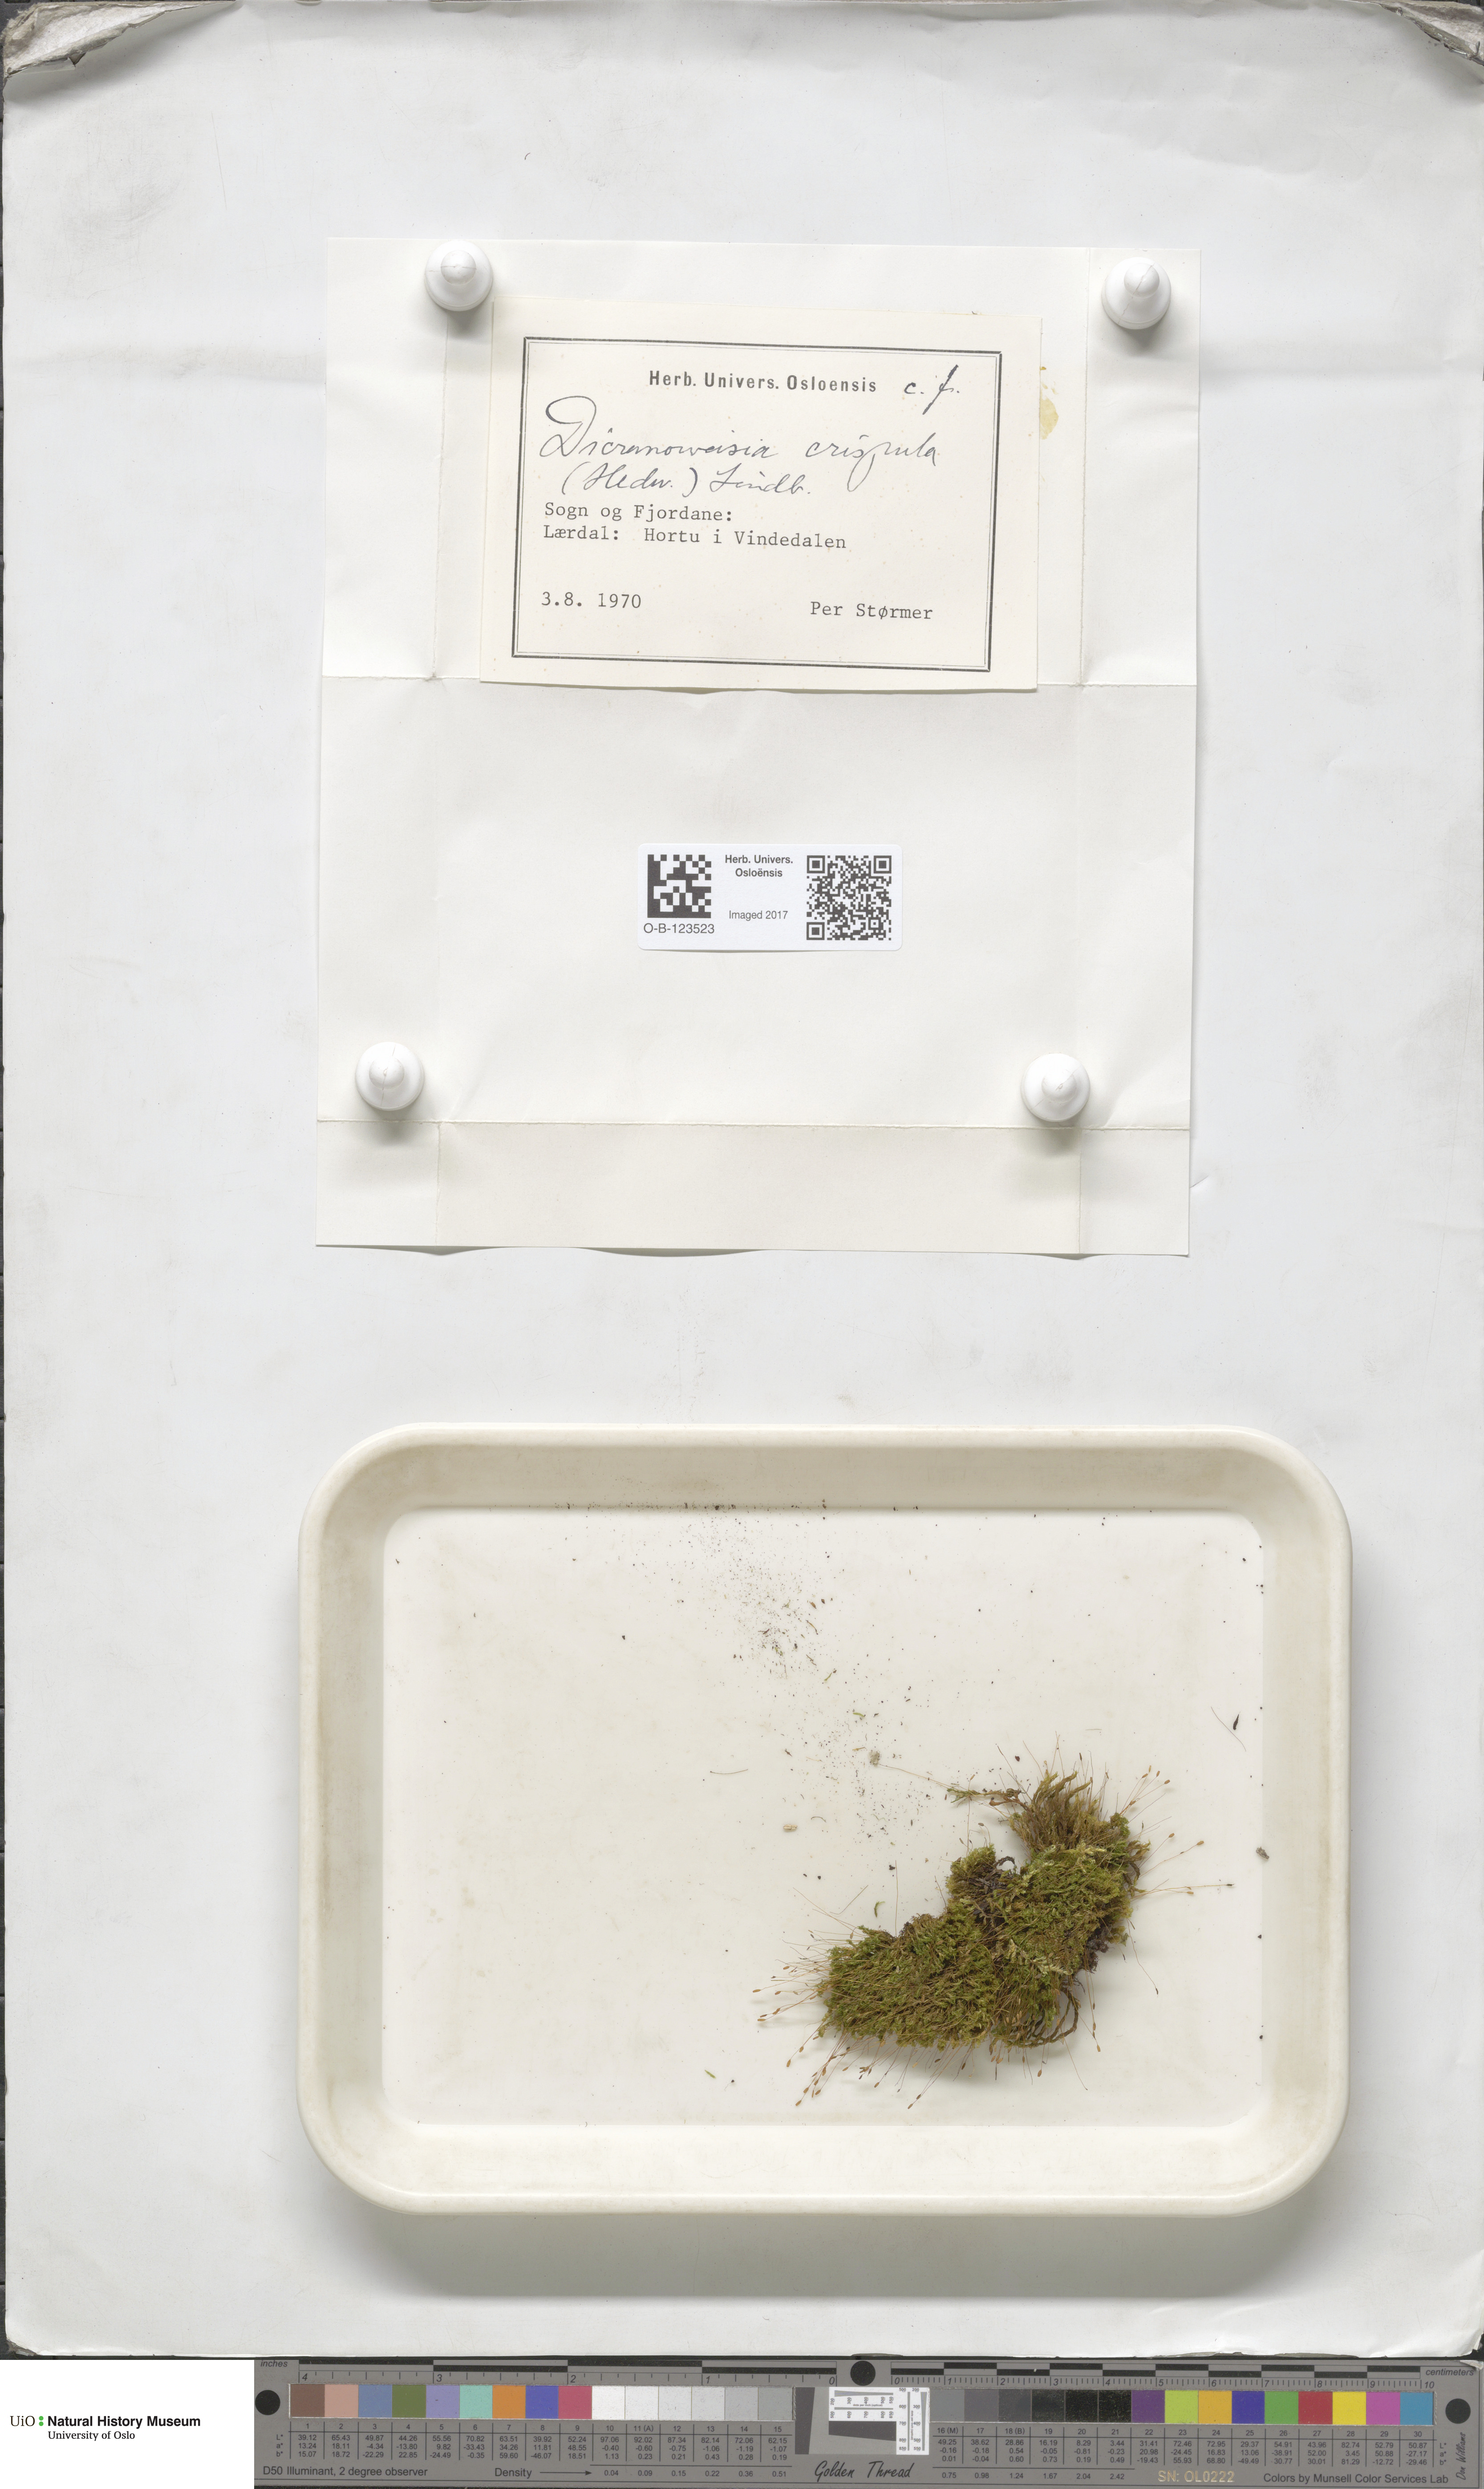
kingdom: Plantae
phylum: Bryophyta
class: Bryopsida
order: Scouleriales
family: Hymenolomataceae
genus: Hymenoloma
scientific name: Hymenoloma crispulum
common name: Mountain pincushion
